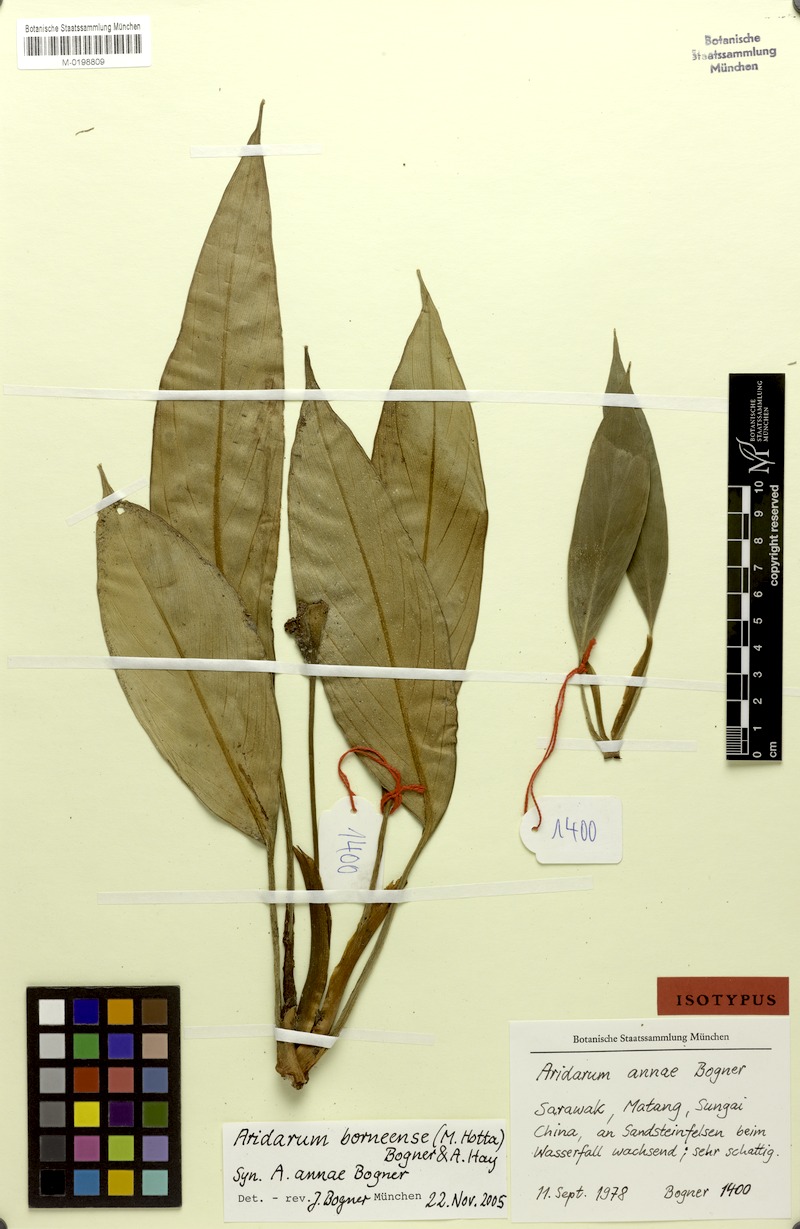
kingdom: Plantae
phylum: Tracheophyta
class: Liliopsida
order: Alismatales
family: Araceae
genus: Heteroaridarum
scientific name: Heteroaridarum borneense
